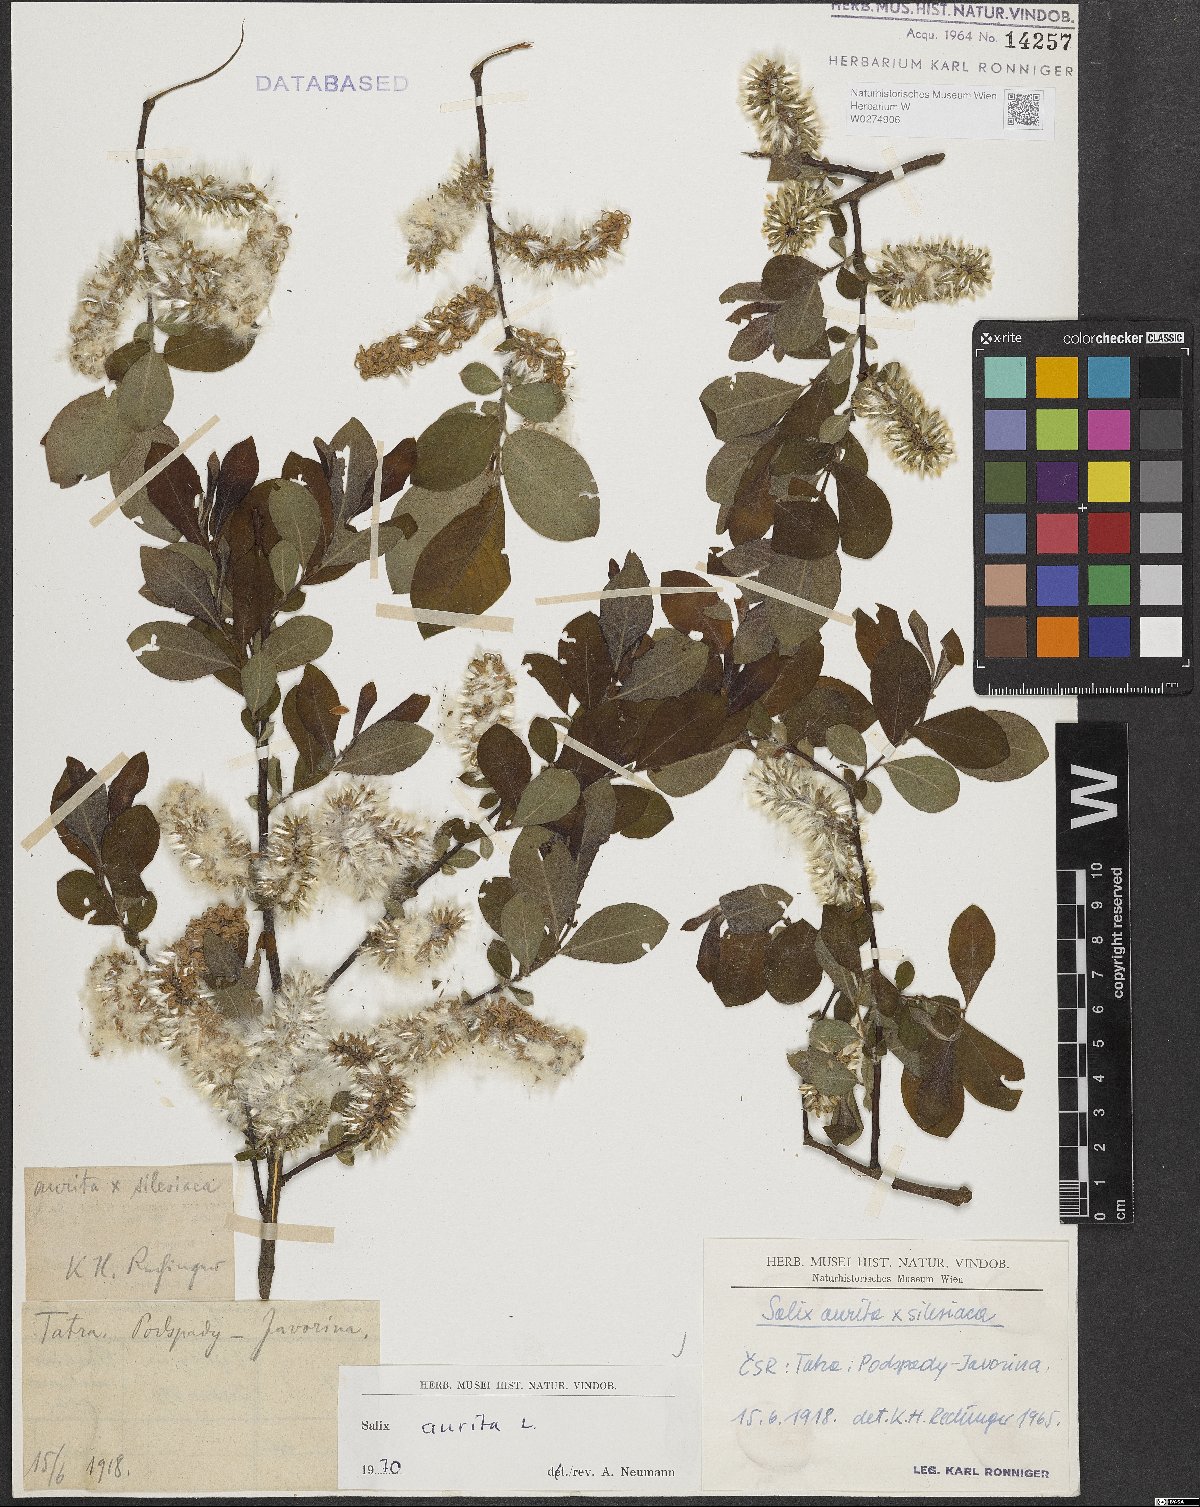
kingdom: Plantae
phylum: Tracheophyta
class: Magnoliopsida
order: Malpighiales
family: Salicaceae
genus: Salix
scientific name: Salix aurita
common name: Eared willow
